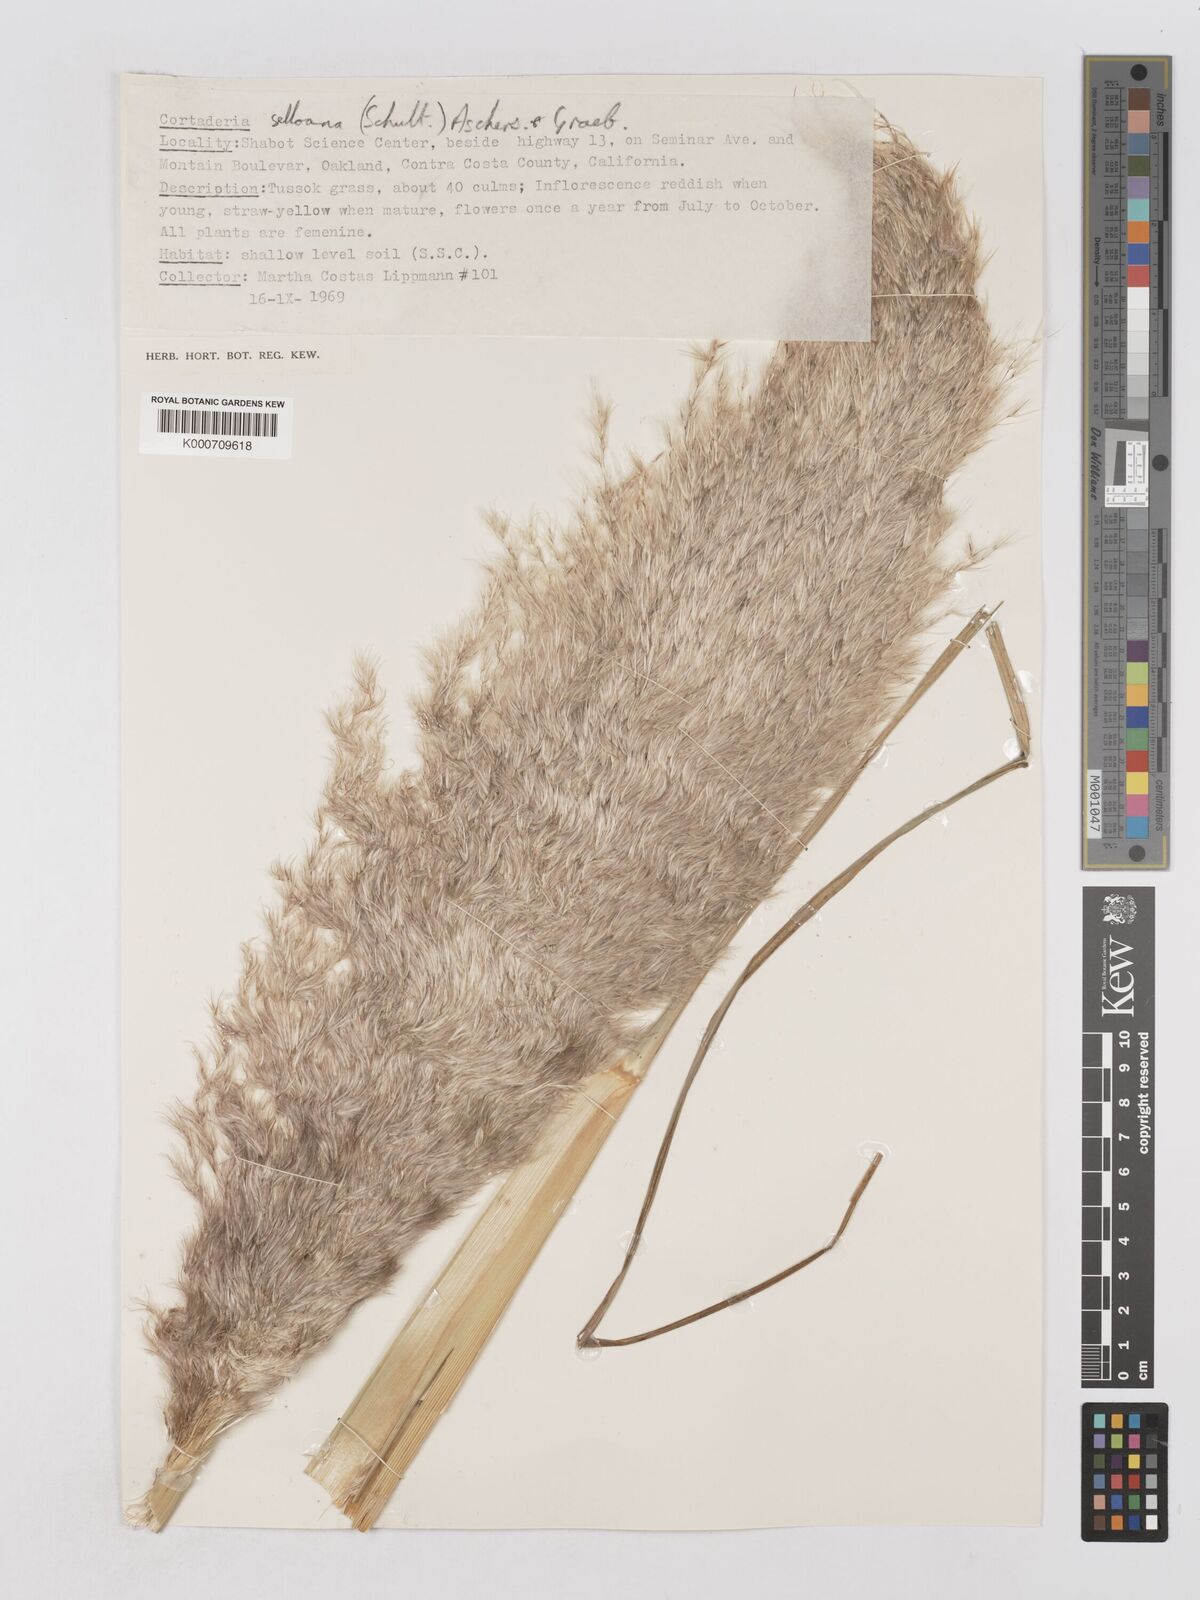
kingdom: Plantae
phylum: Tracheophyta
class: Liliopsida
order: Poales
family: Poaceae
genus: Cortaderia
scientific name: Cortaderia selloana
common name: Uruguayan pampas grass
